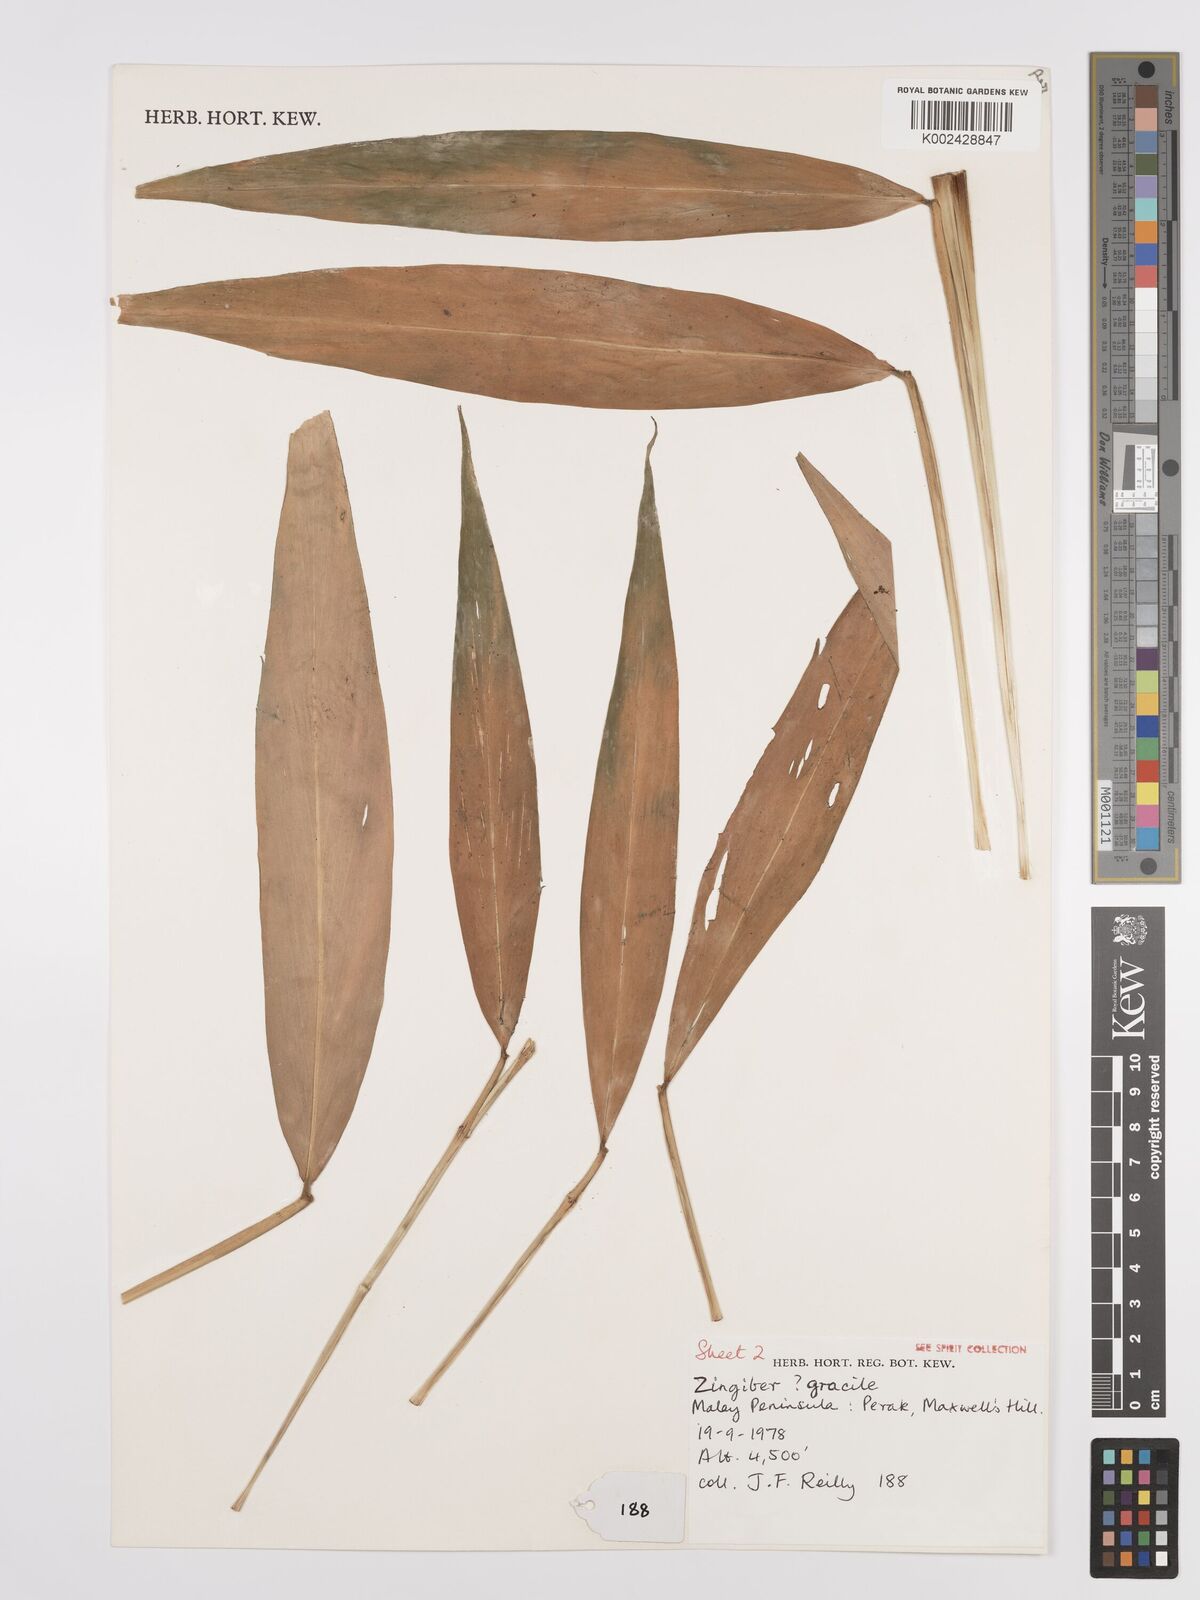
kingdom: Plantae
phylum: Tracheophyta
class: Liliopsida
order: Zingiberales
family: Zingiberaceae
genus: Zingiber
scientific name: Zingiber gracile
